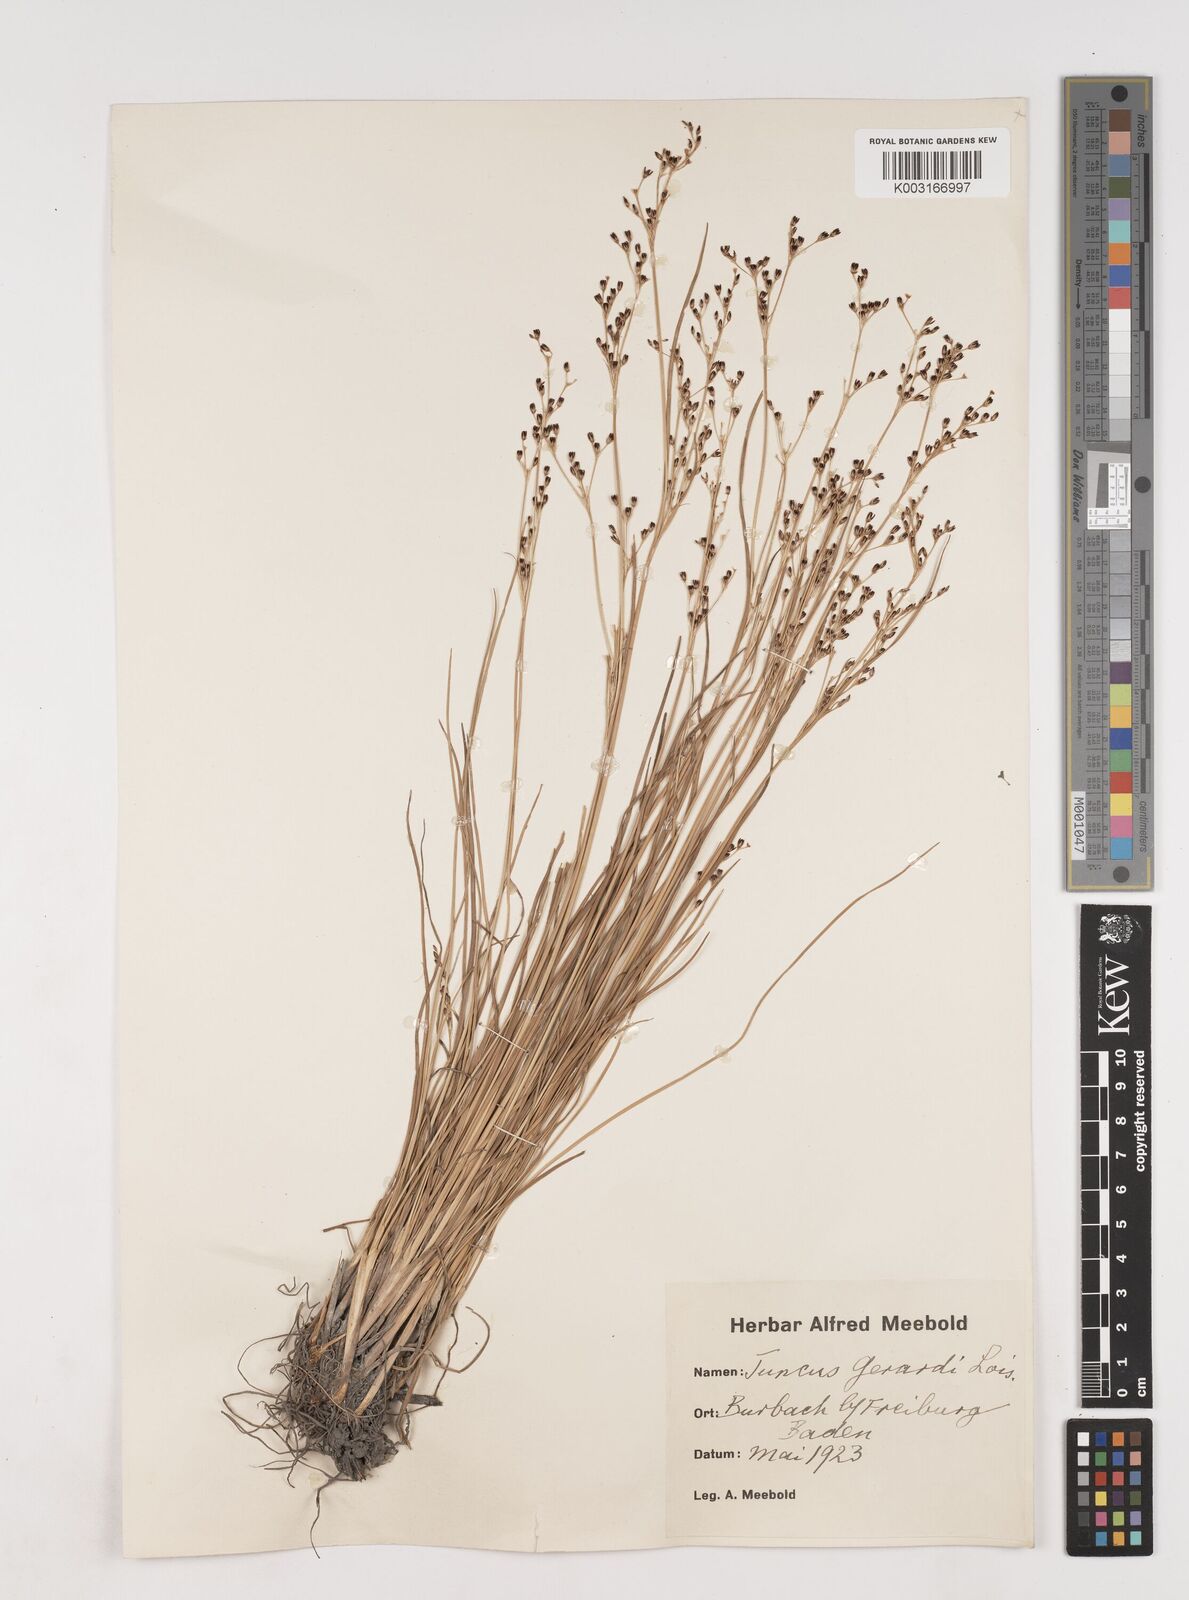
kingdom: Plantae
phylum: Tracheophyta
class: Liliopsida
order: Poales
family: Juncaceae
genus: Juncus
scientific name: Juncus gerardi
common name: Saltmarsh rush
